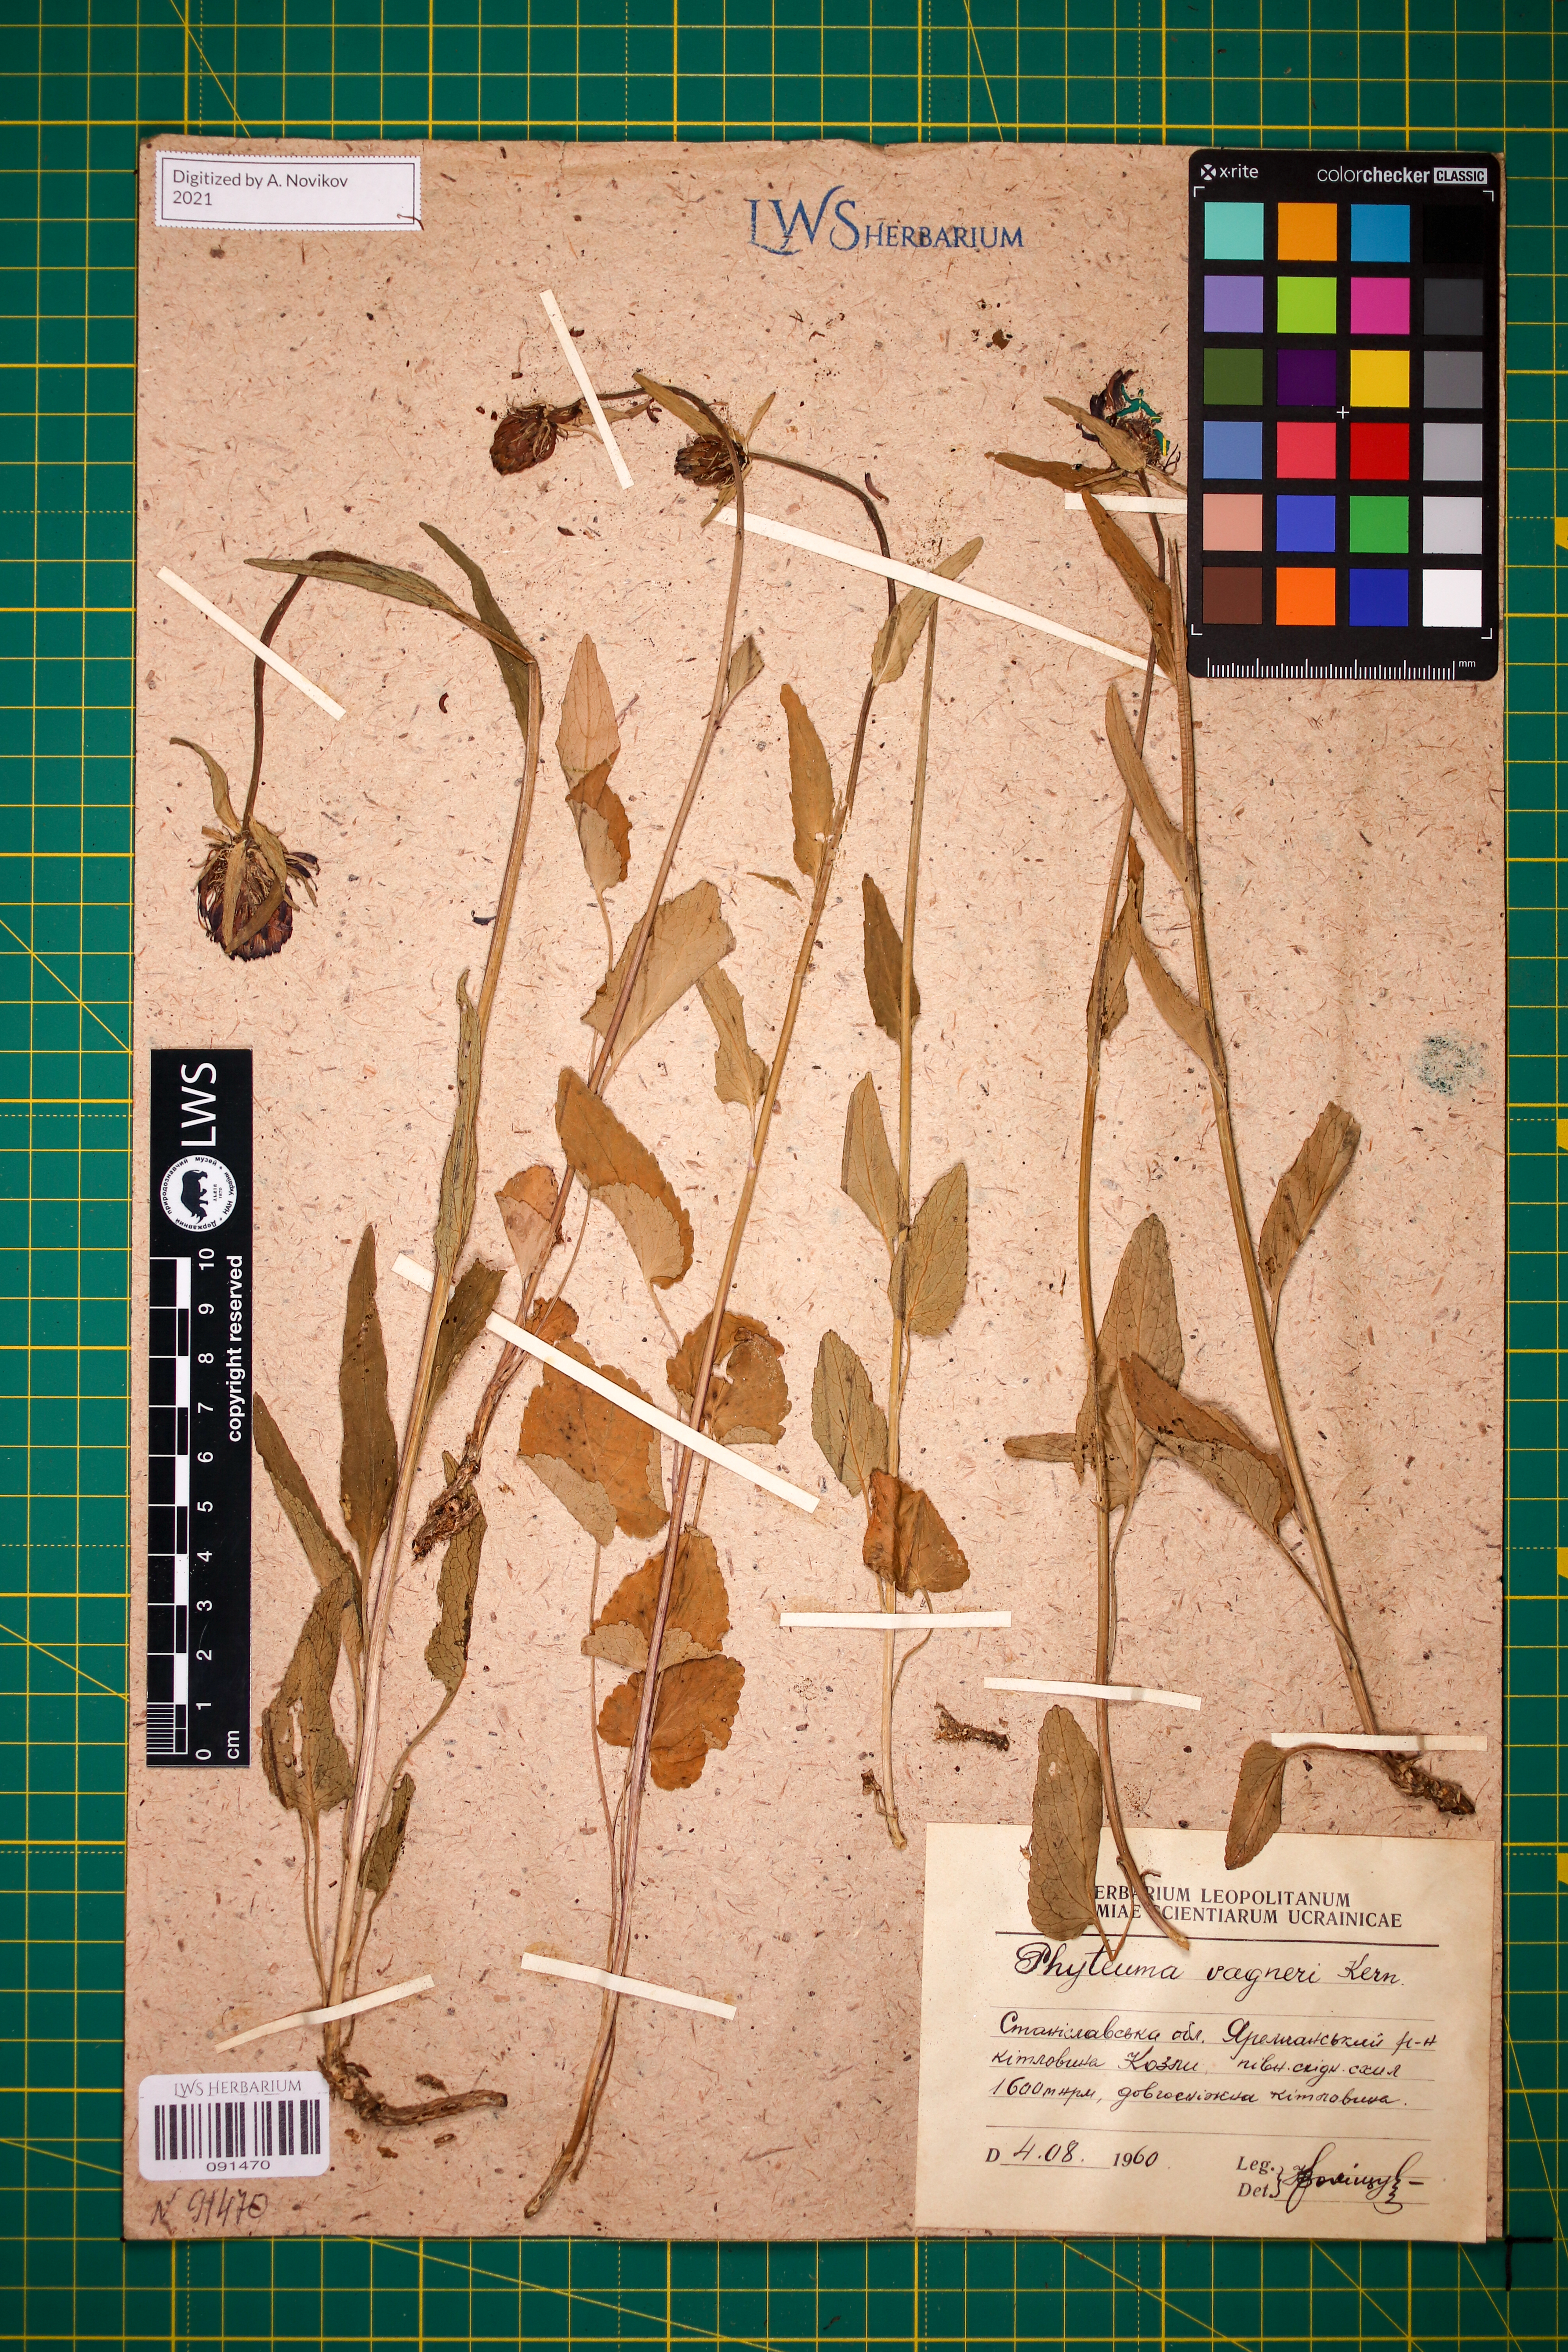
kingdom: Plantae
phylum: Tracheophyta
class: Magnoliopsida
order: Asterales
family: Campanulaceae
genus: Phyteuma
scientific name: Phyteuma vagneri
